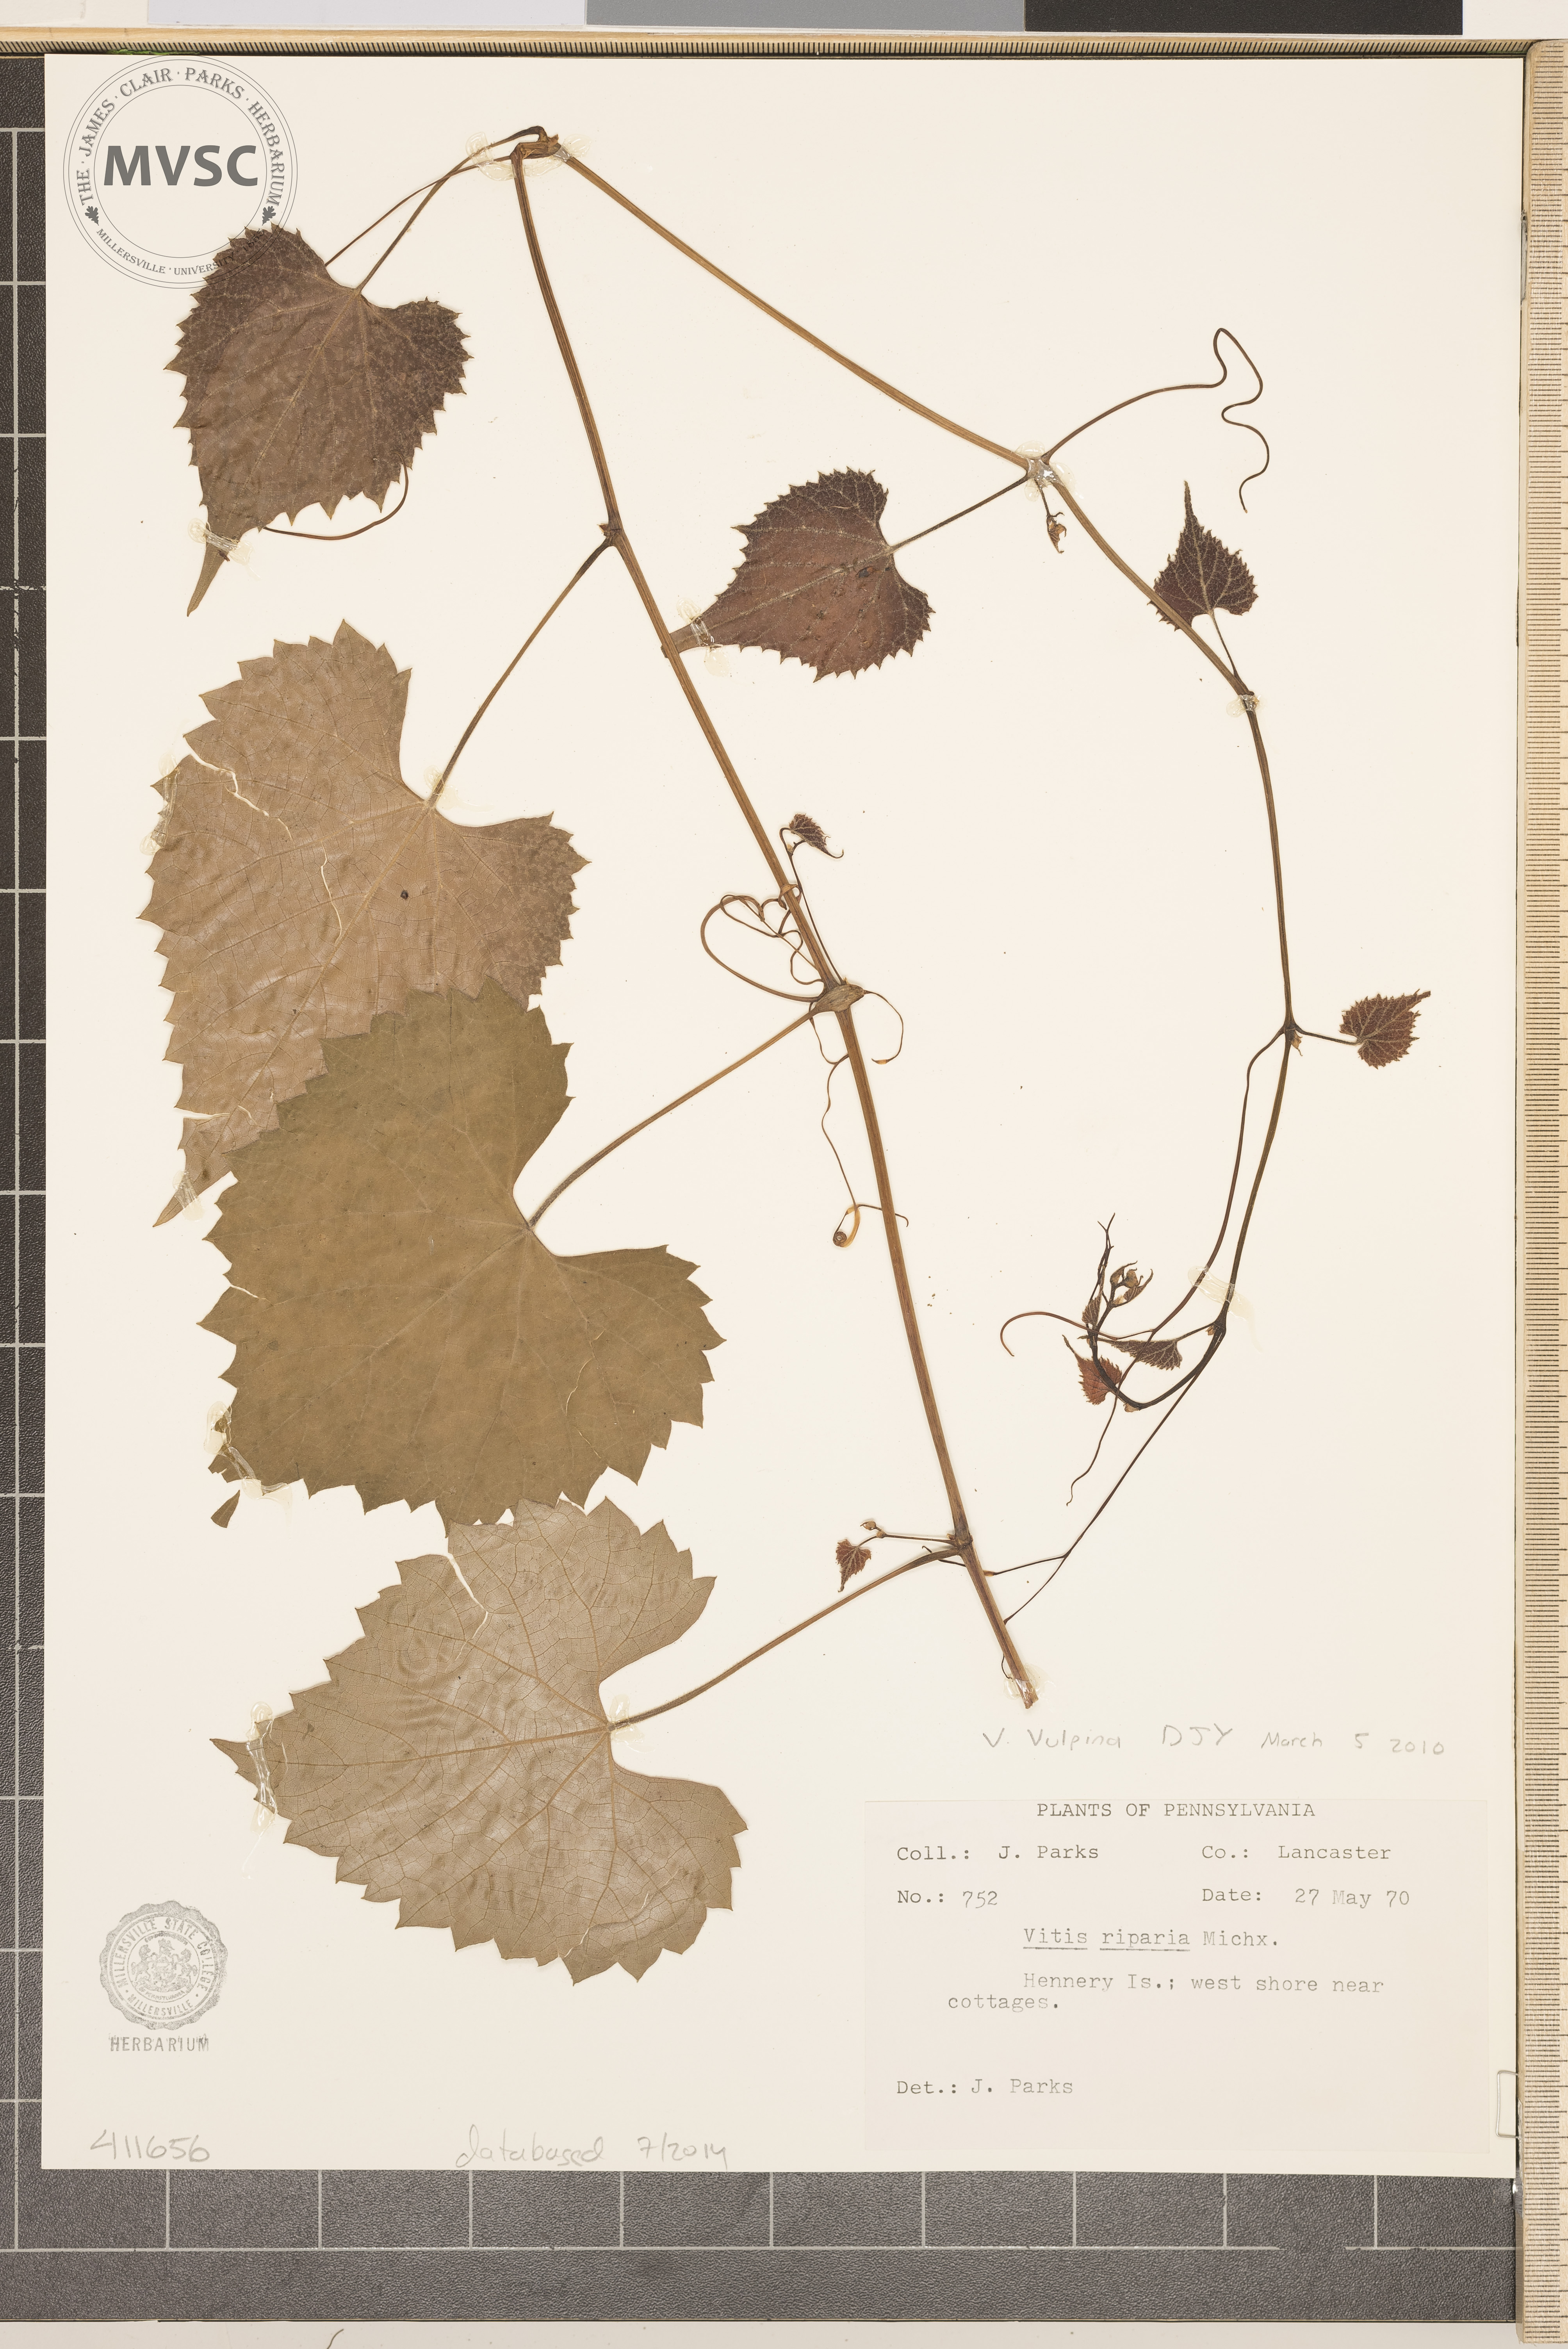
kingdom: Plantae
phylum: Tracheophyta
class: Magnoliopsida
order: Vitales
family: Vitaceae
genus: Vitis
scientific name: Vitis vulpina
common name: fox grape
